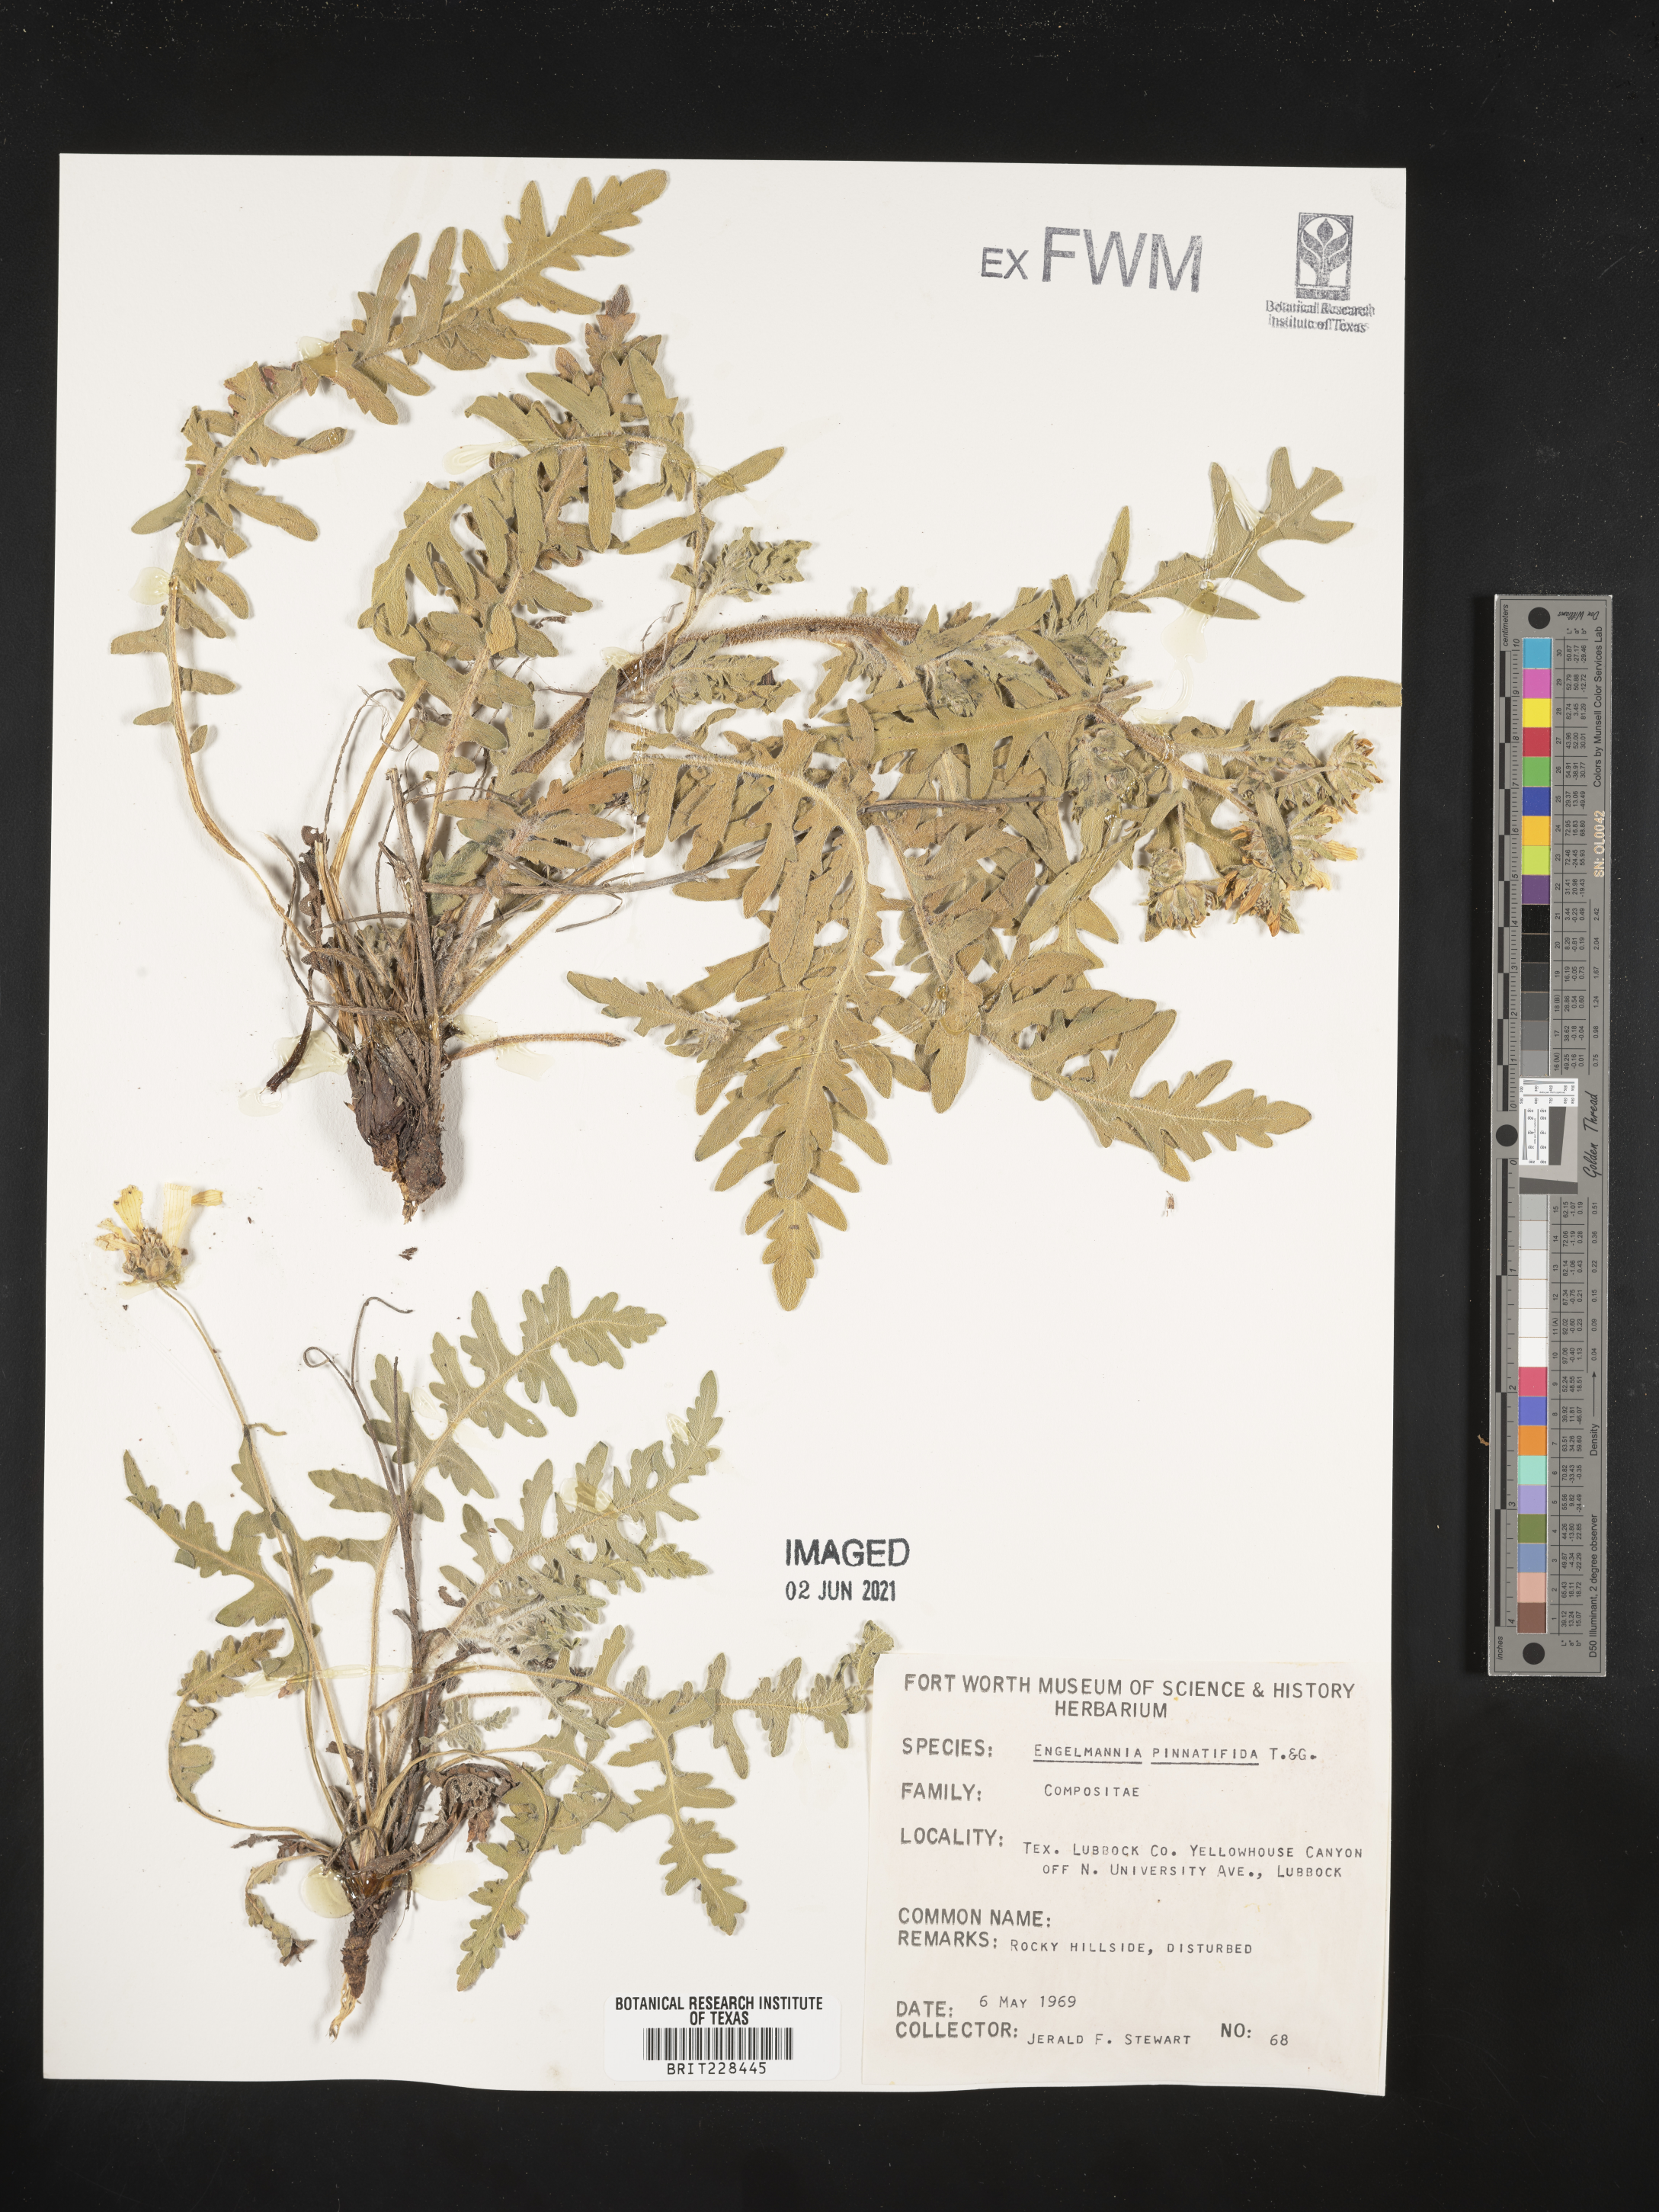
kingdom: Plantae
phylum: Tracheophyta
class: Magnoliopsida
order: Asterales
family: Asteraceae
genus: Engelmannia
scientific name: Engelmannia peristenia
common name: Engelmann's daisy
